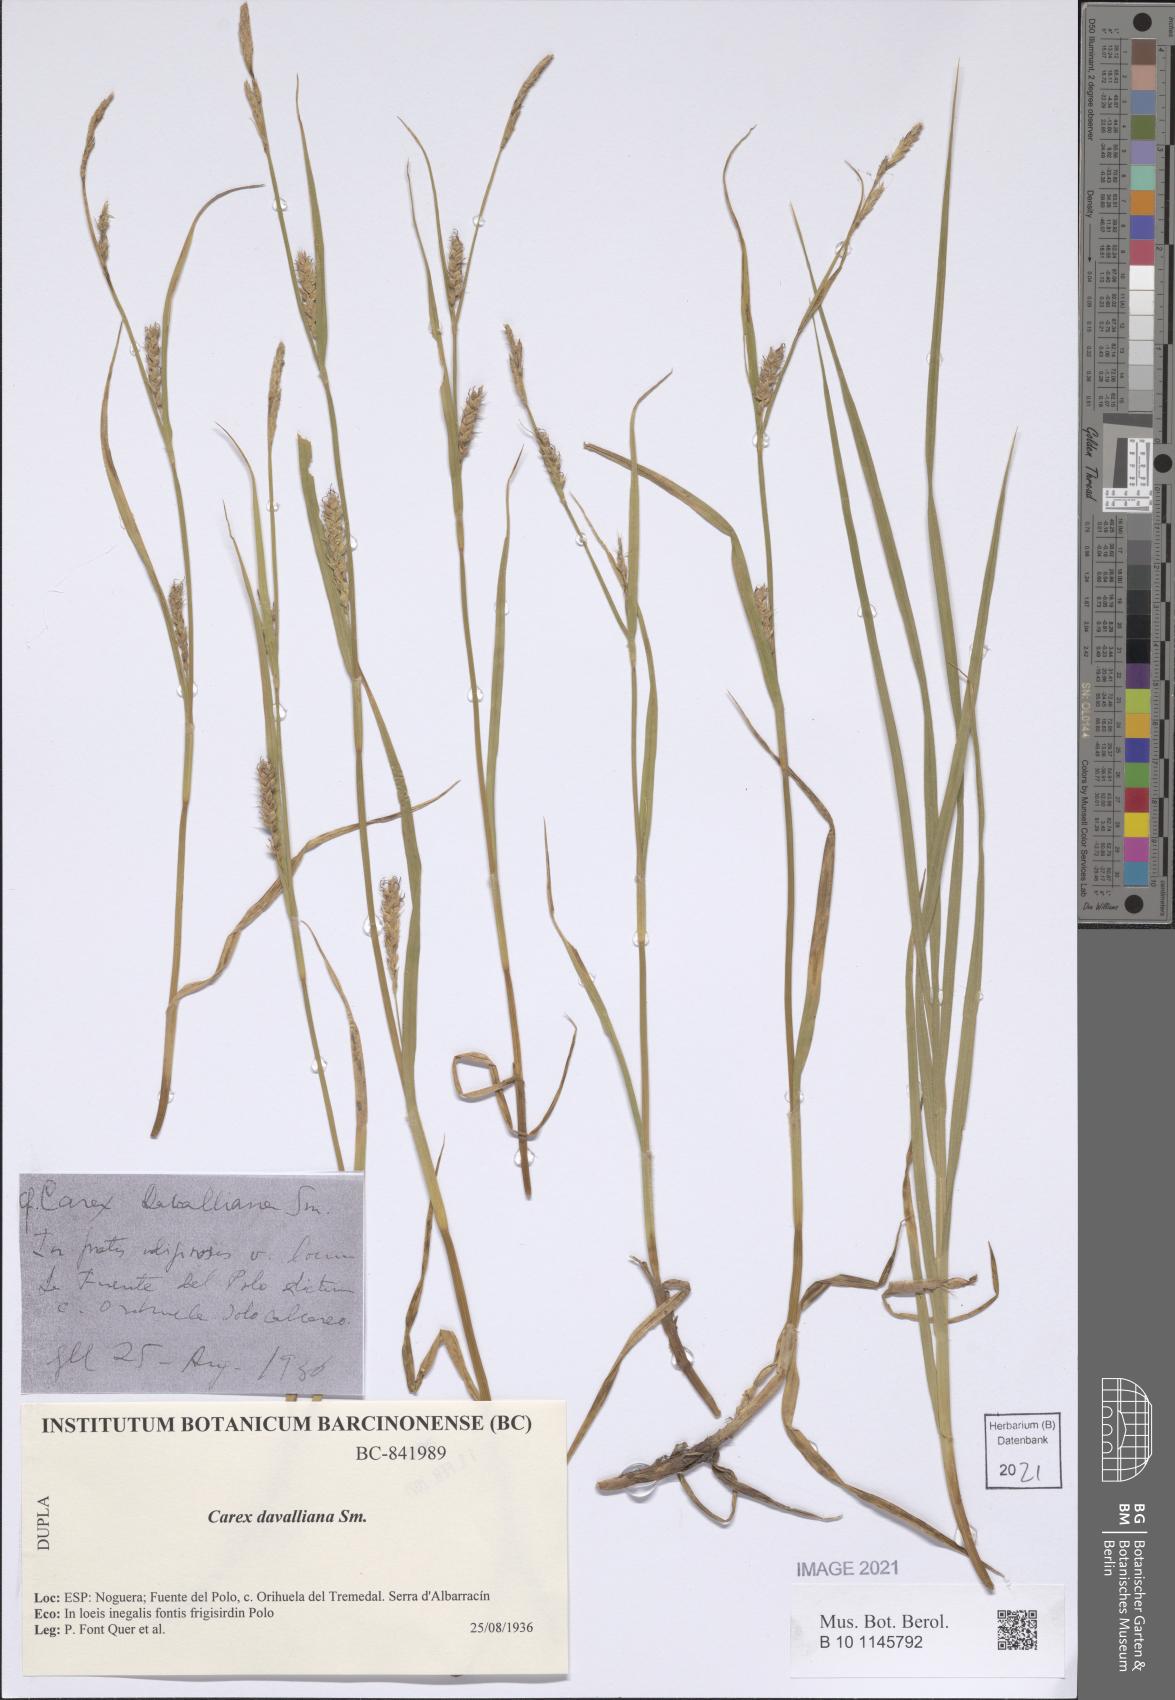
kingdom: Plantae
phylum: Tracheophyta
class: Liliopsida
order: Poales
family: Cyperaceae
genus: Carex
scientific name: Carex davalliana
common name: Davall's sedge
